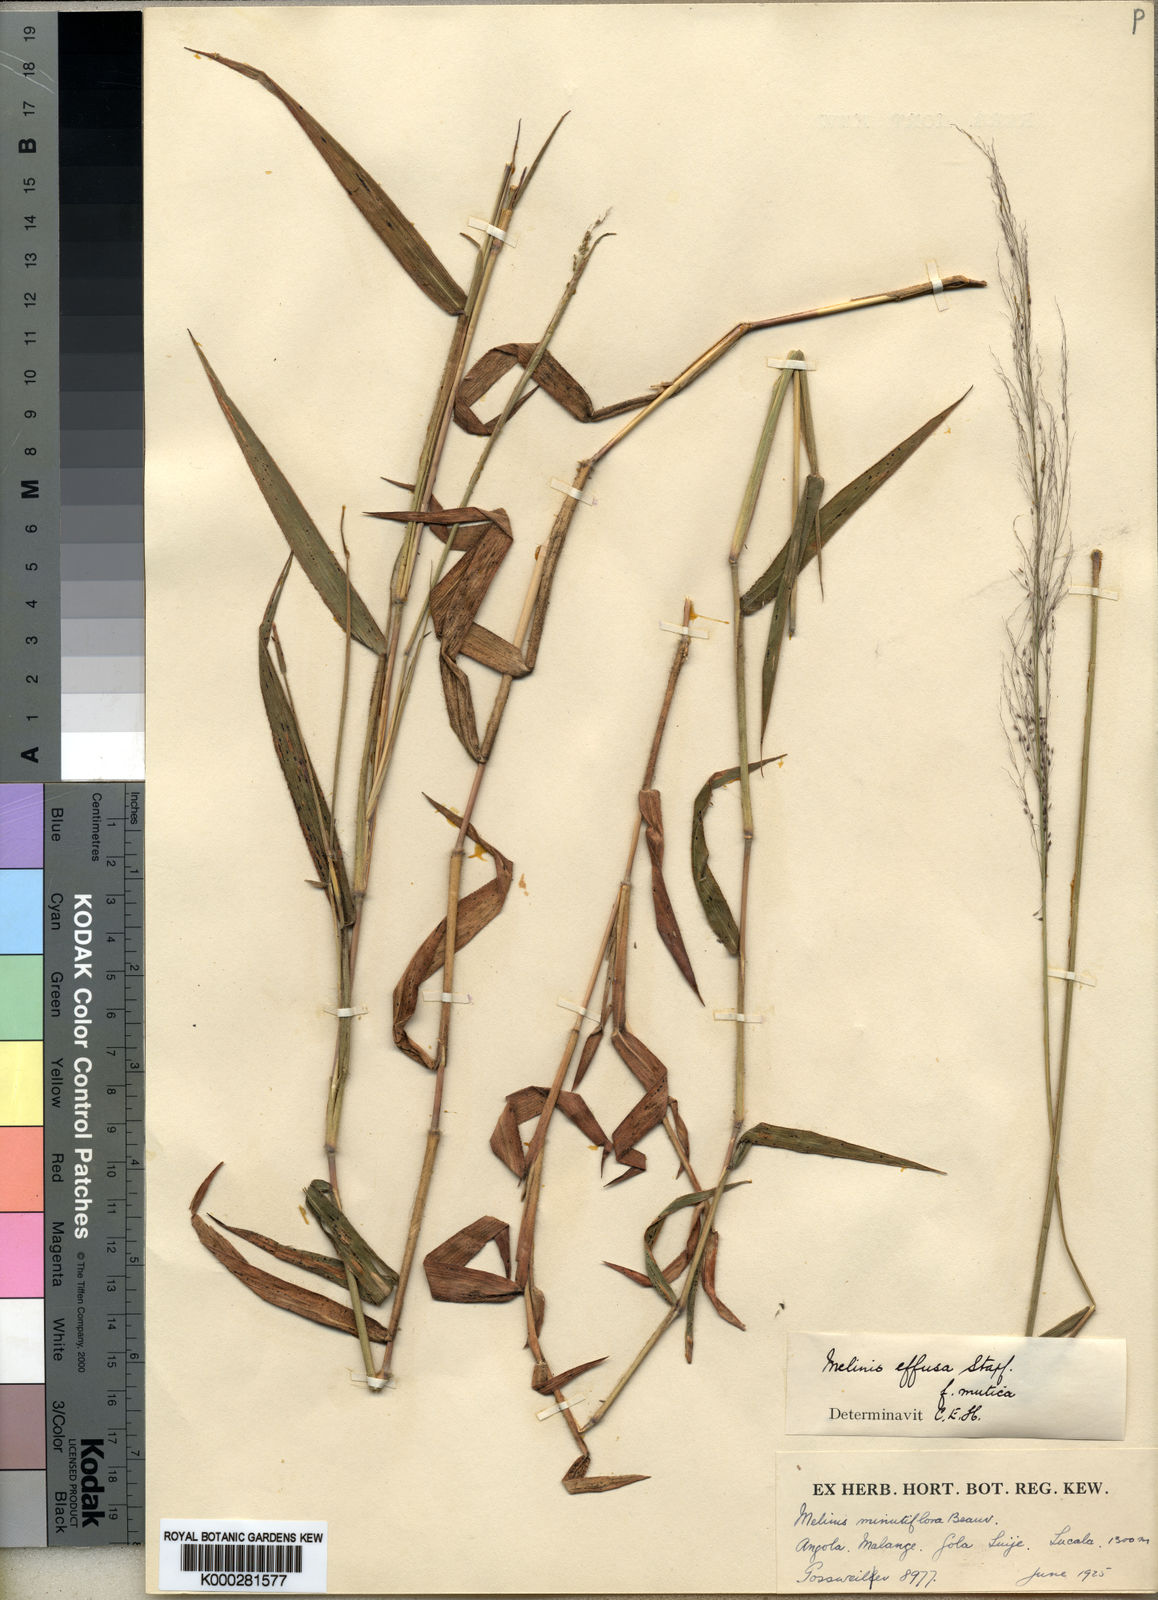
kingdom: Plantae
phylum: Tracheophyta
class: Liliopsida
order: Poales
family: Poaceae
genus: Melinis
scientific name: Melinis
